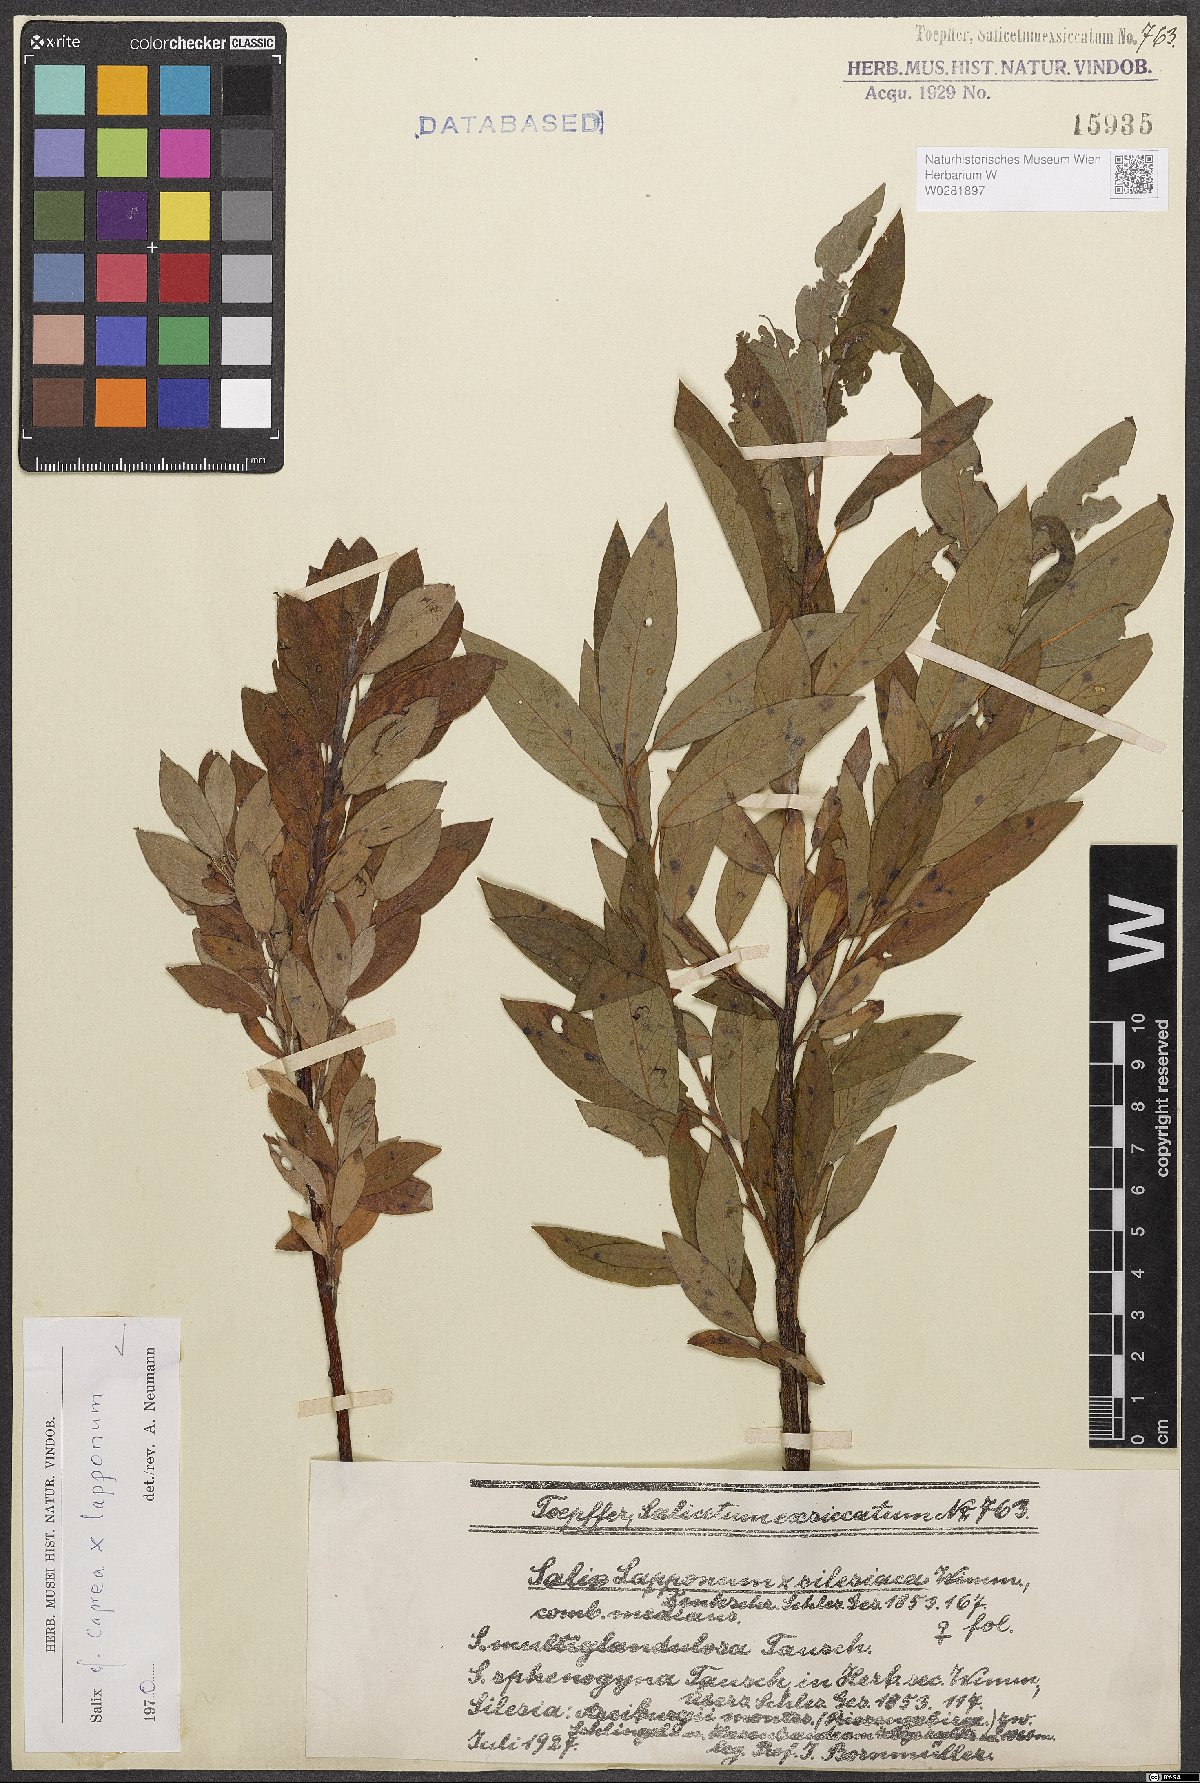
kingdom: Plantae
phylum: Tracheophyta
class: Magnoliopsida
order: Malpighiales
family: Salicaceae
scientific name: Salicaceae
